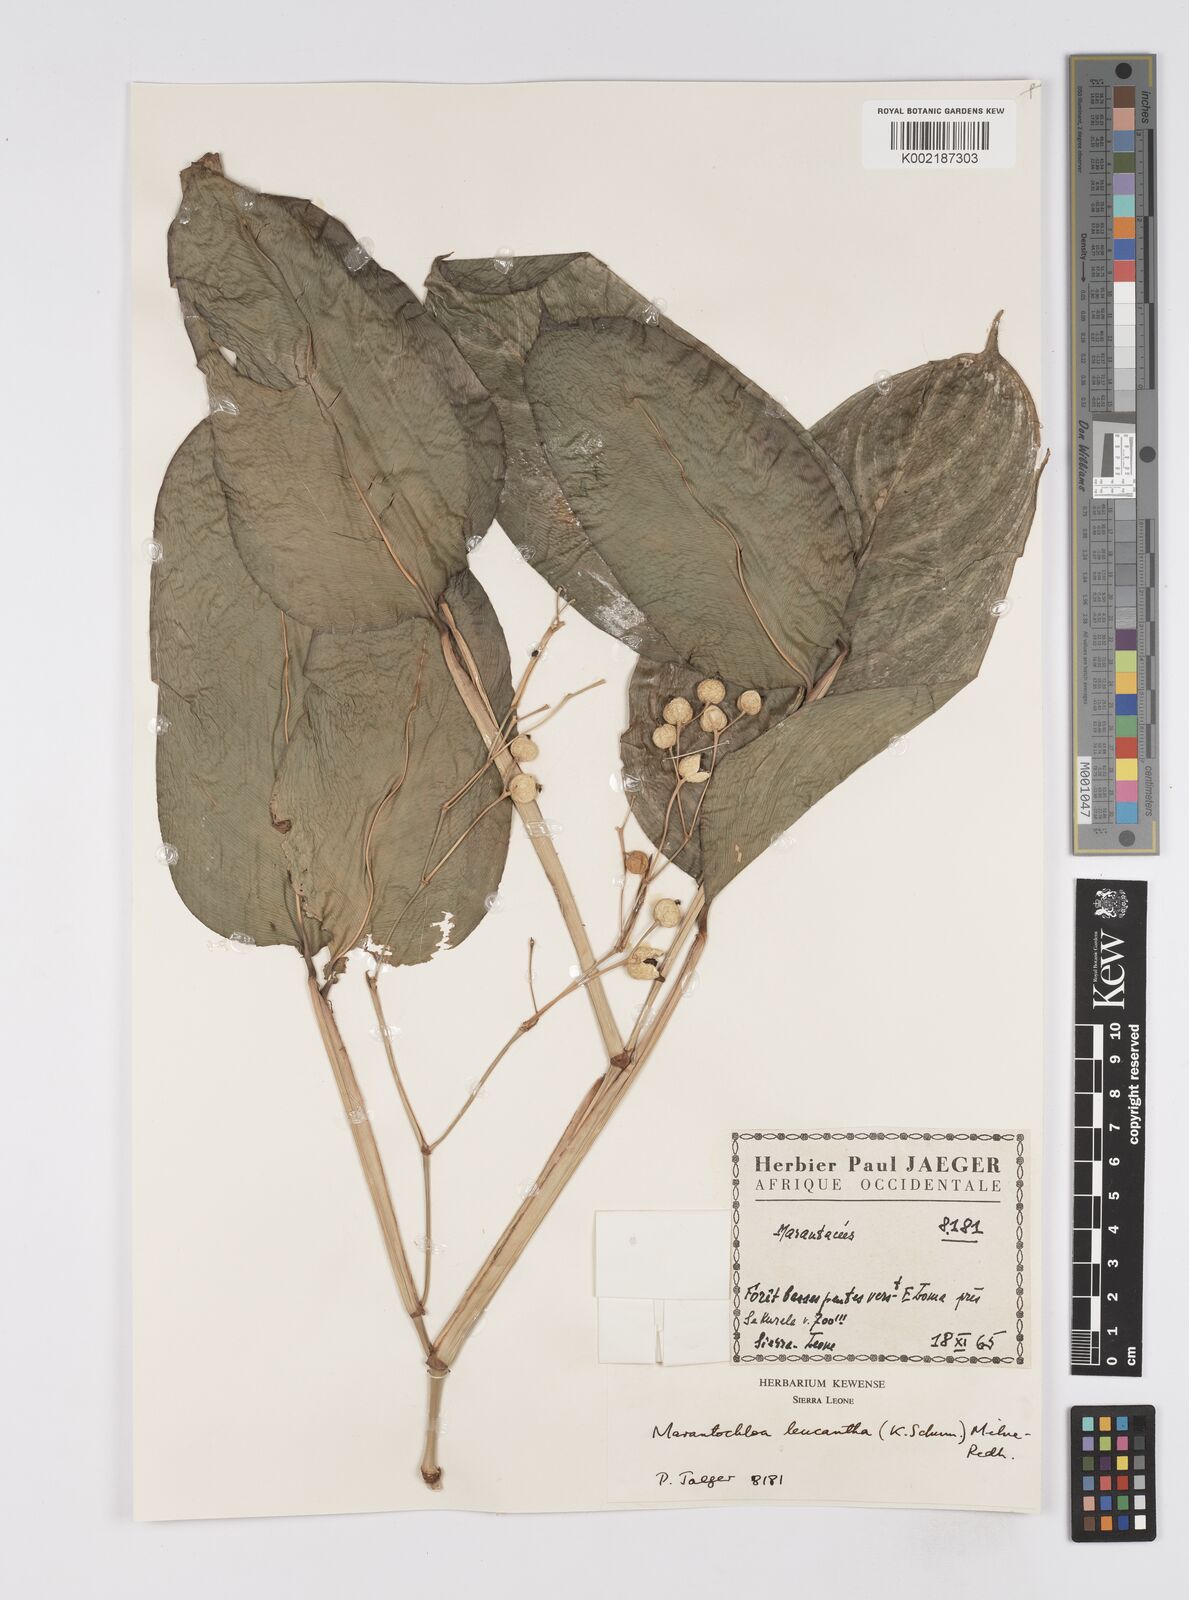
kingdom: Plantae
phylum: Tracheophyta
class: Liliopsida
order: Zingiberales
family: Marantaceae
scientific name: Marantaceae
